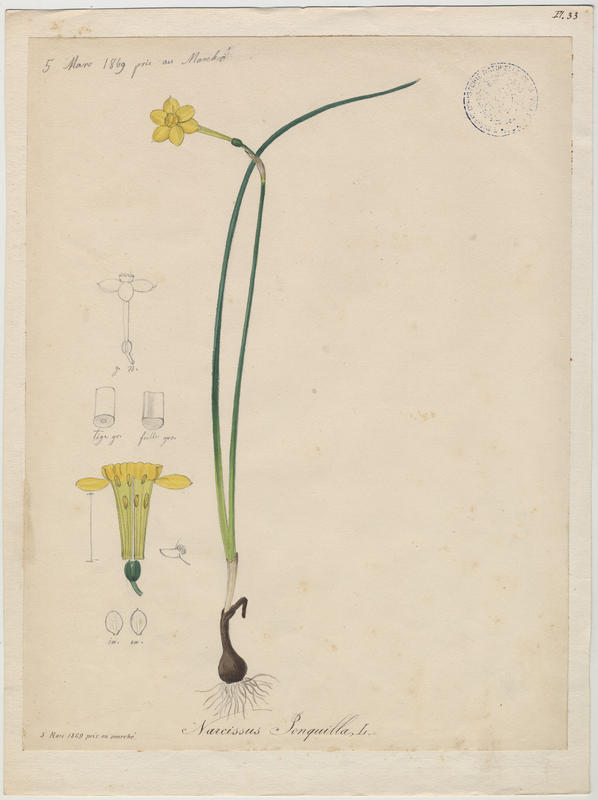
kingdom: Plantae
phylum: Tracheophyta
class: Liliopsida
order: Asparagales
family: Amaryllidaceae
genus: Narcissus
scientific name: Narcissus jonquilla
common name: Jonquil
